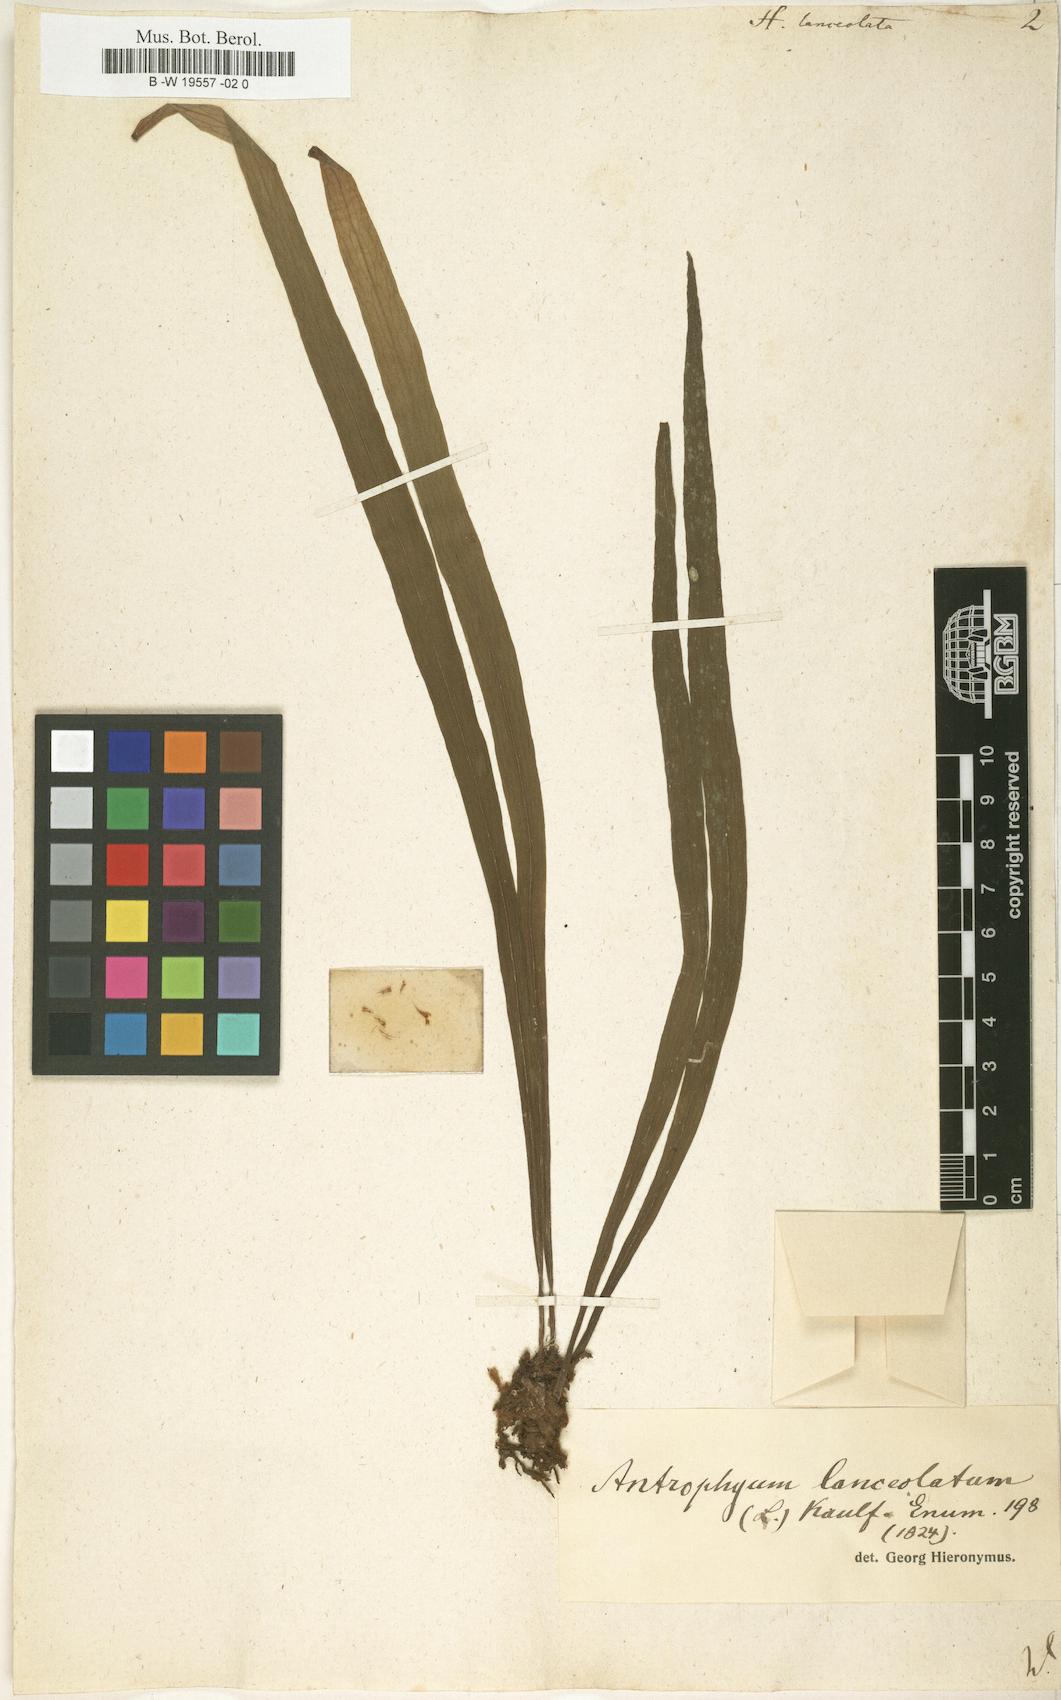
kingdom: Plantae
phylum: Tracheophyta
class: Polypodiopsida
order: Polypodiales
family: Pteridaceae
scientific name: Pteridaceae
